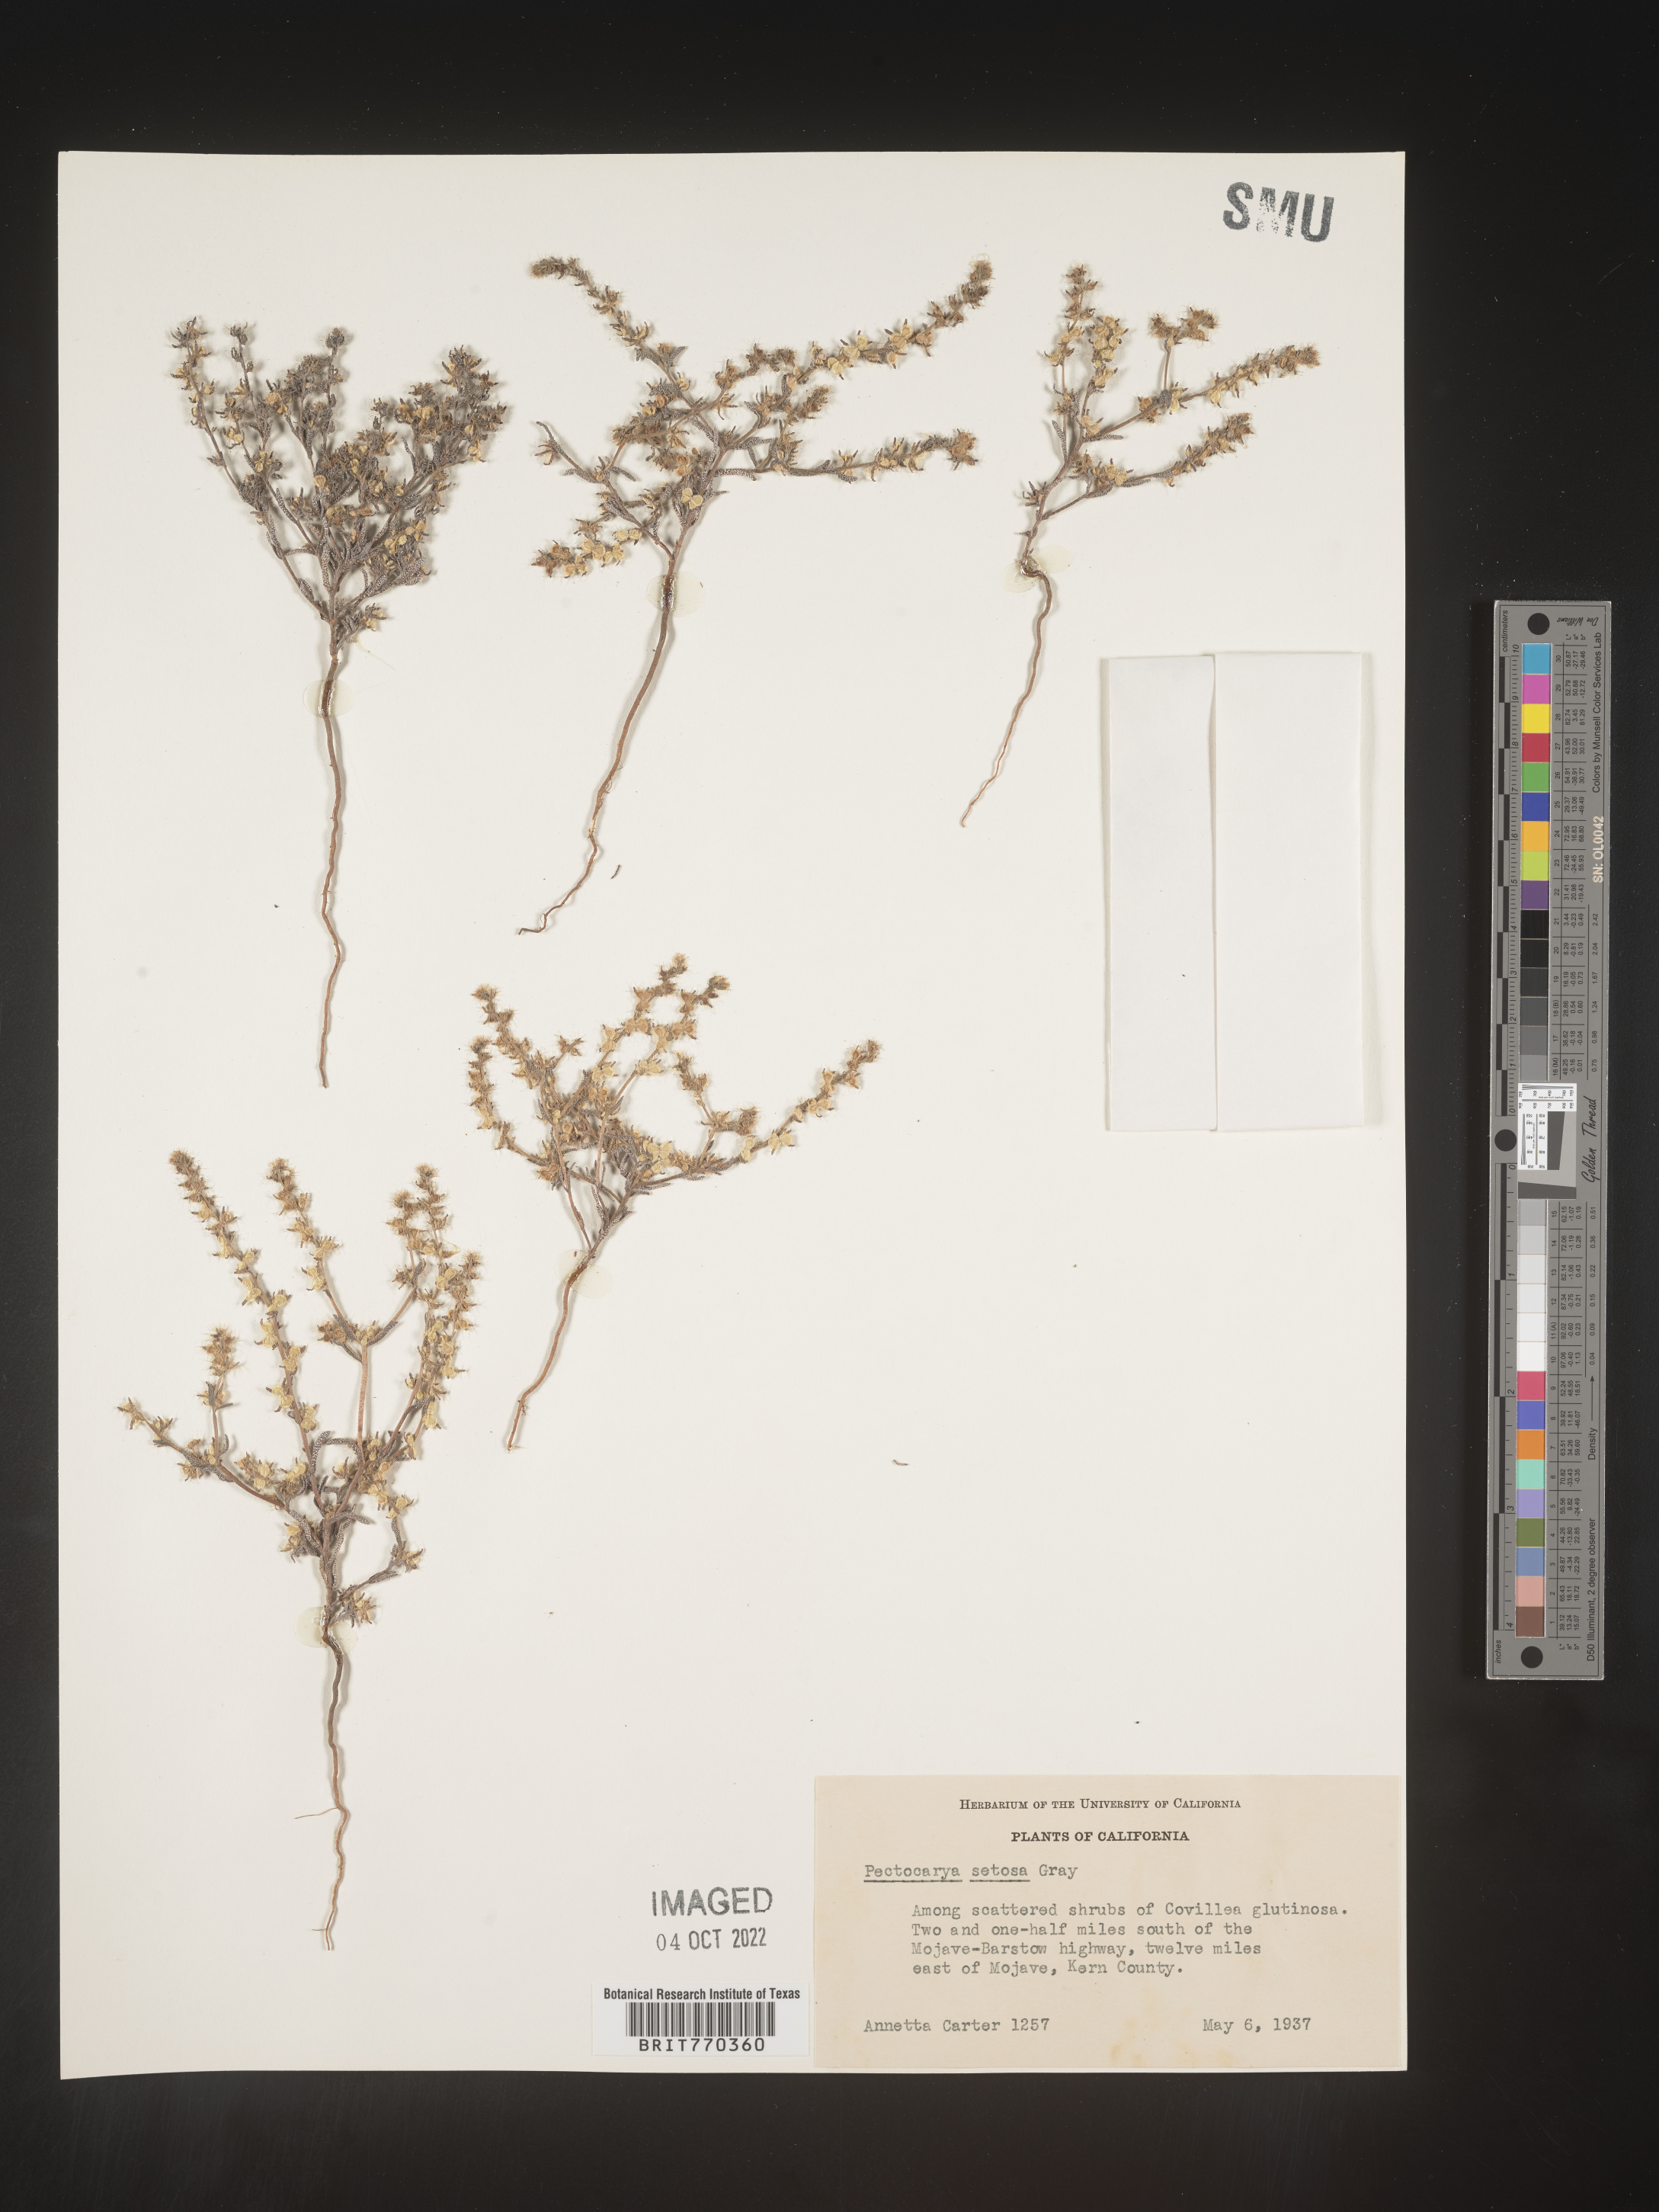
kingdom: Plantae
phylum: Tracheophyta
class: Magnoliopsida
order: Boraginales
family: Boraginaceae
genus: Pectocarya
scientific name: Pectocarya
